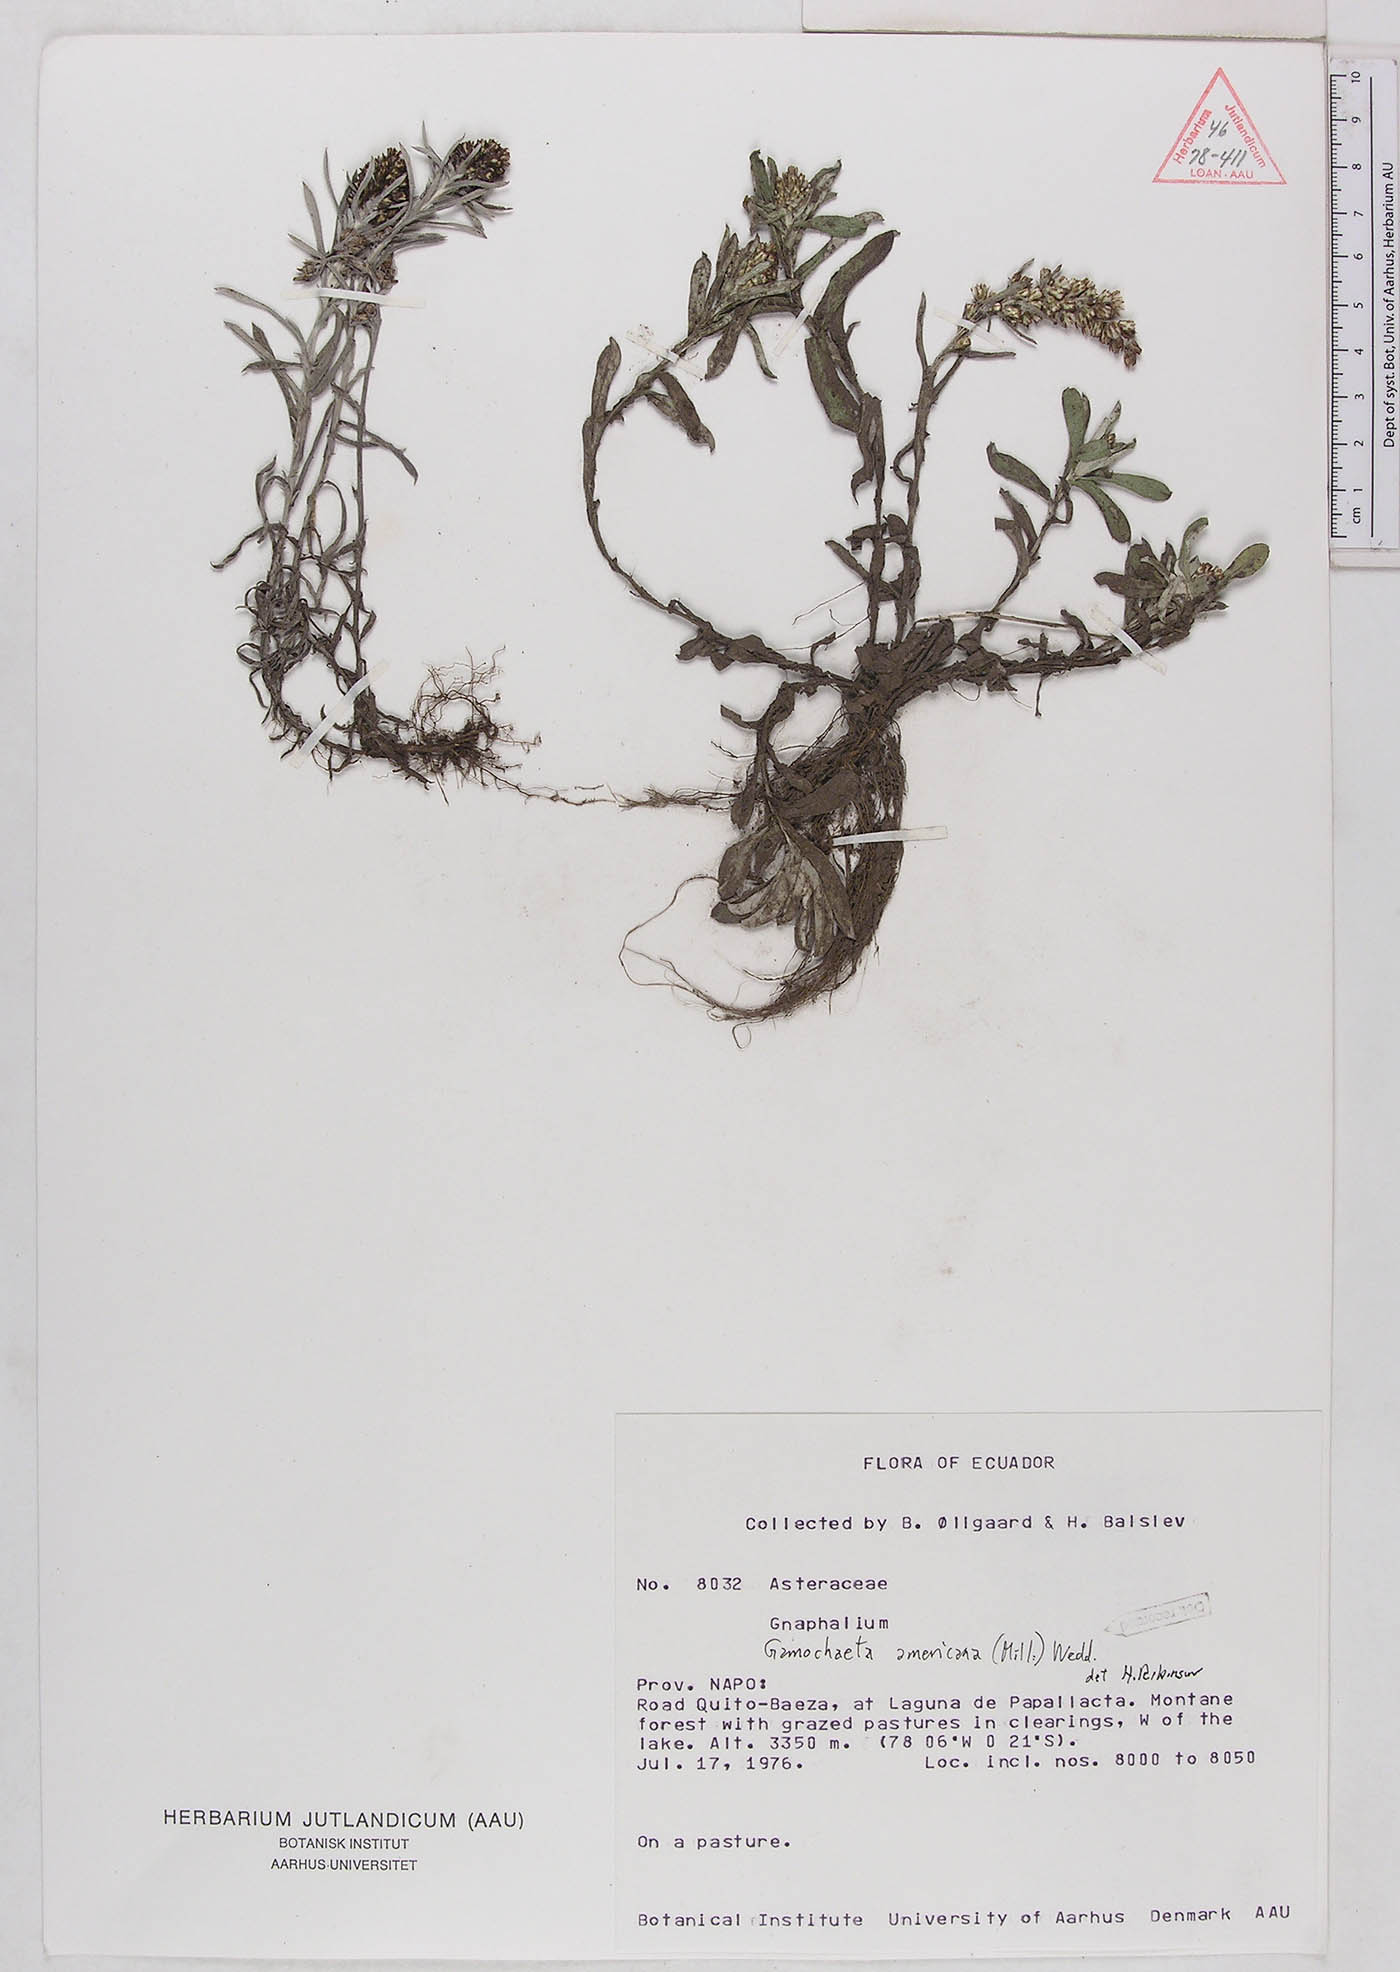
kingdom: Plantae
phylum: Tracheophyta
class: Magnoliopsida
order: Asterales
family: Asteraceae
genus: Gamochaeta
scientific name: Gamochaeta americana
